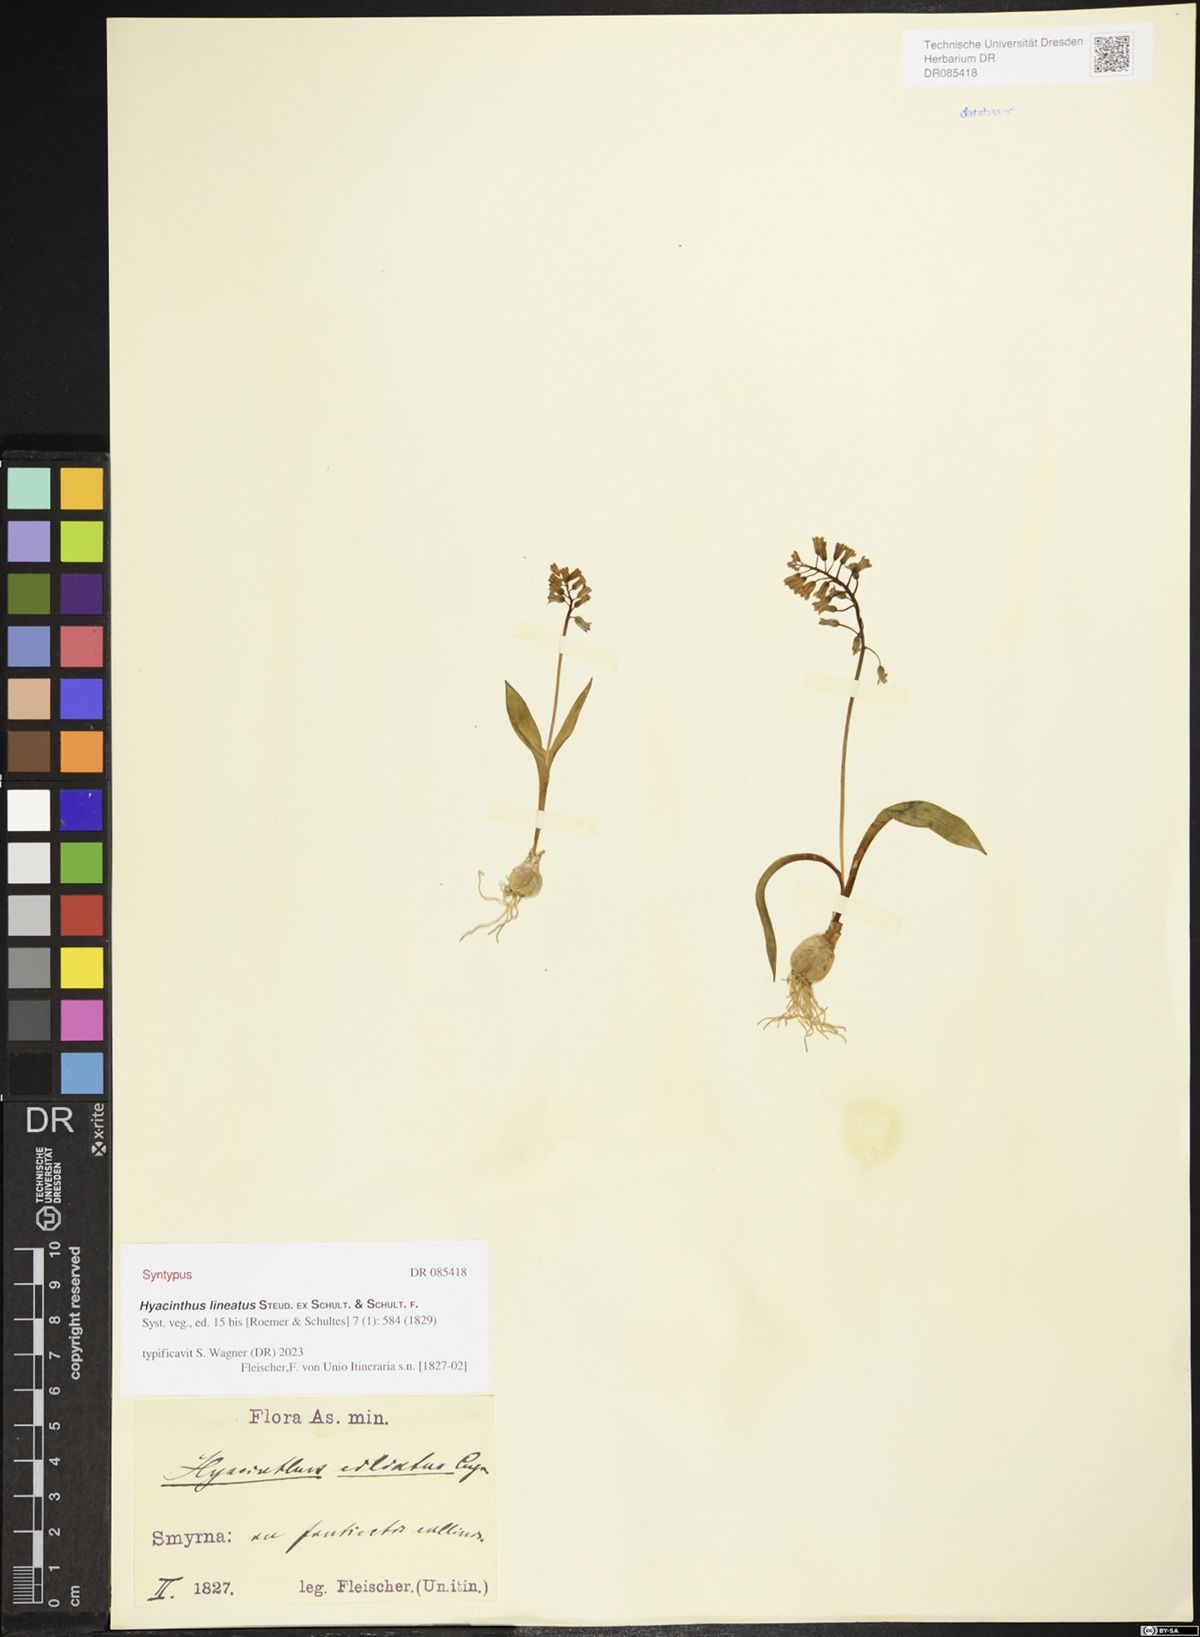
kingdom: Plantae
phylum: Tracheophyta
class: Liliopsida
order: Asparagales
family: Asparagaceae
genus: Hyacinthella
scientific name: Hyacinthella lineata
